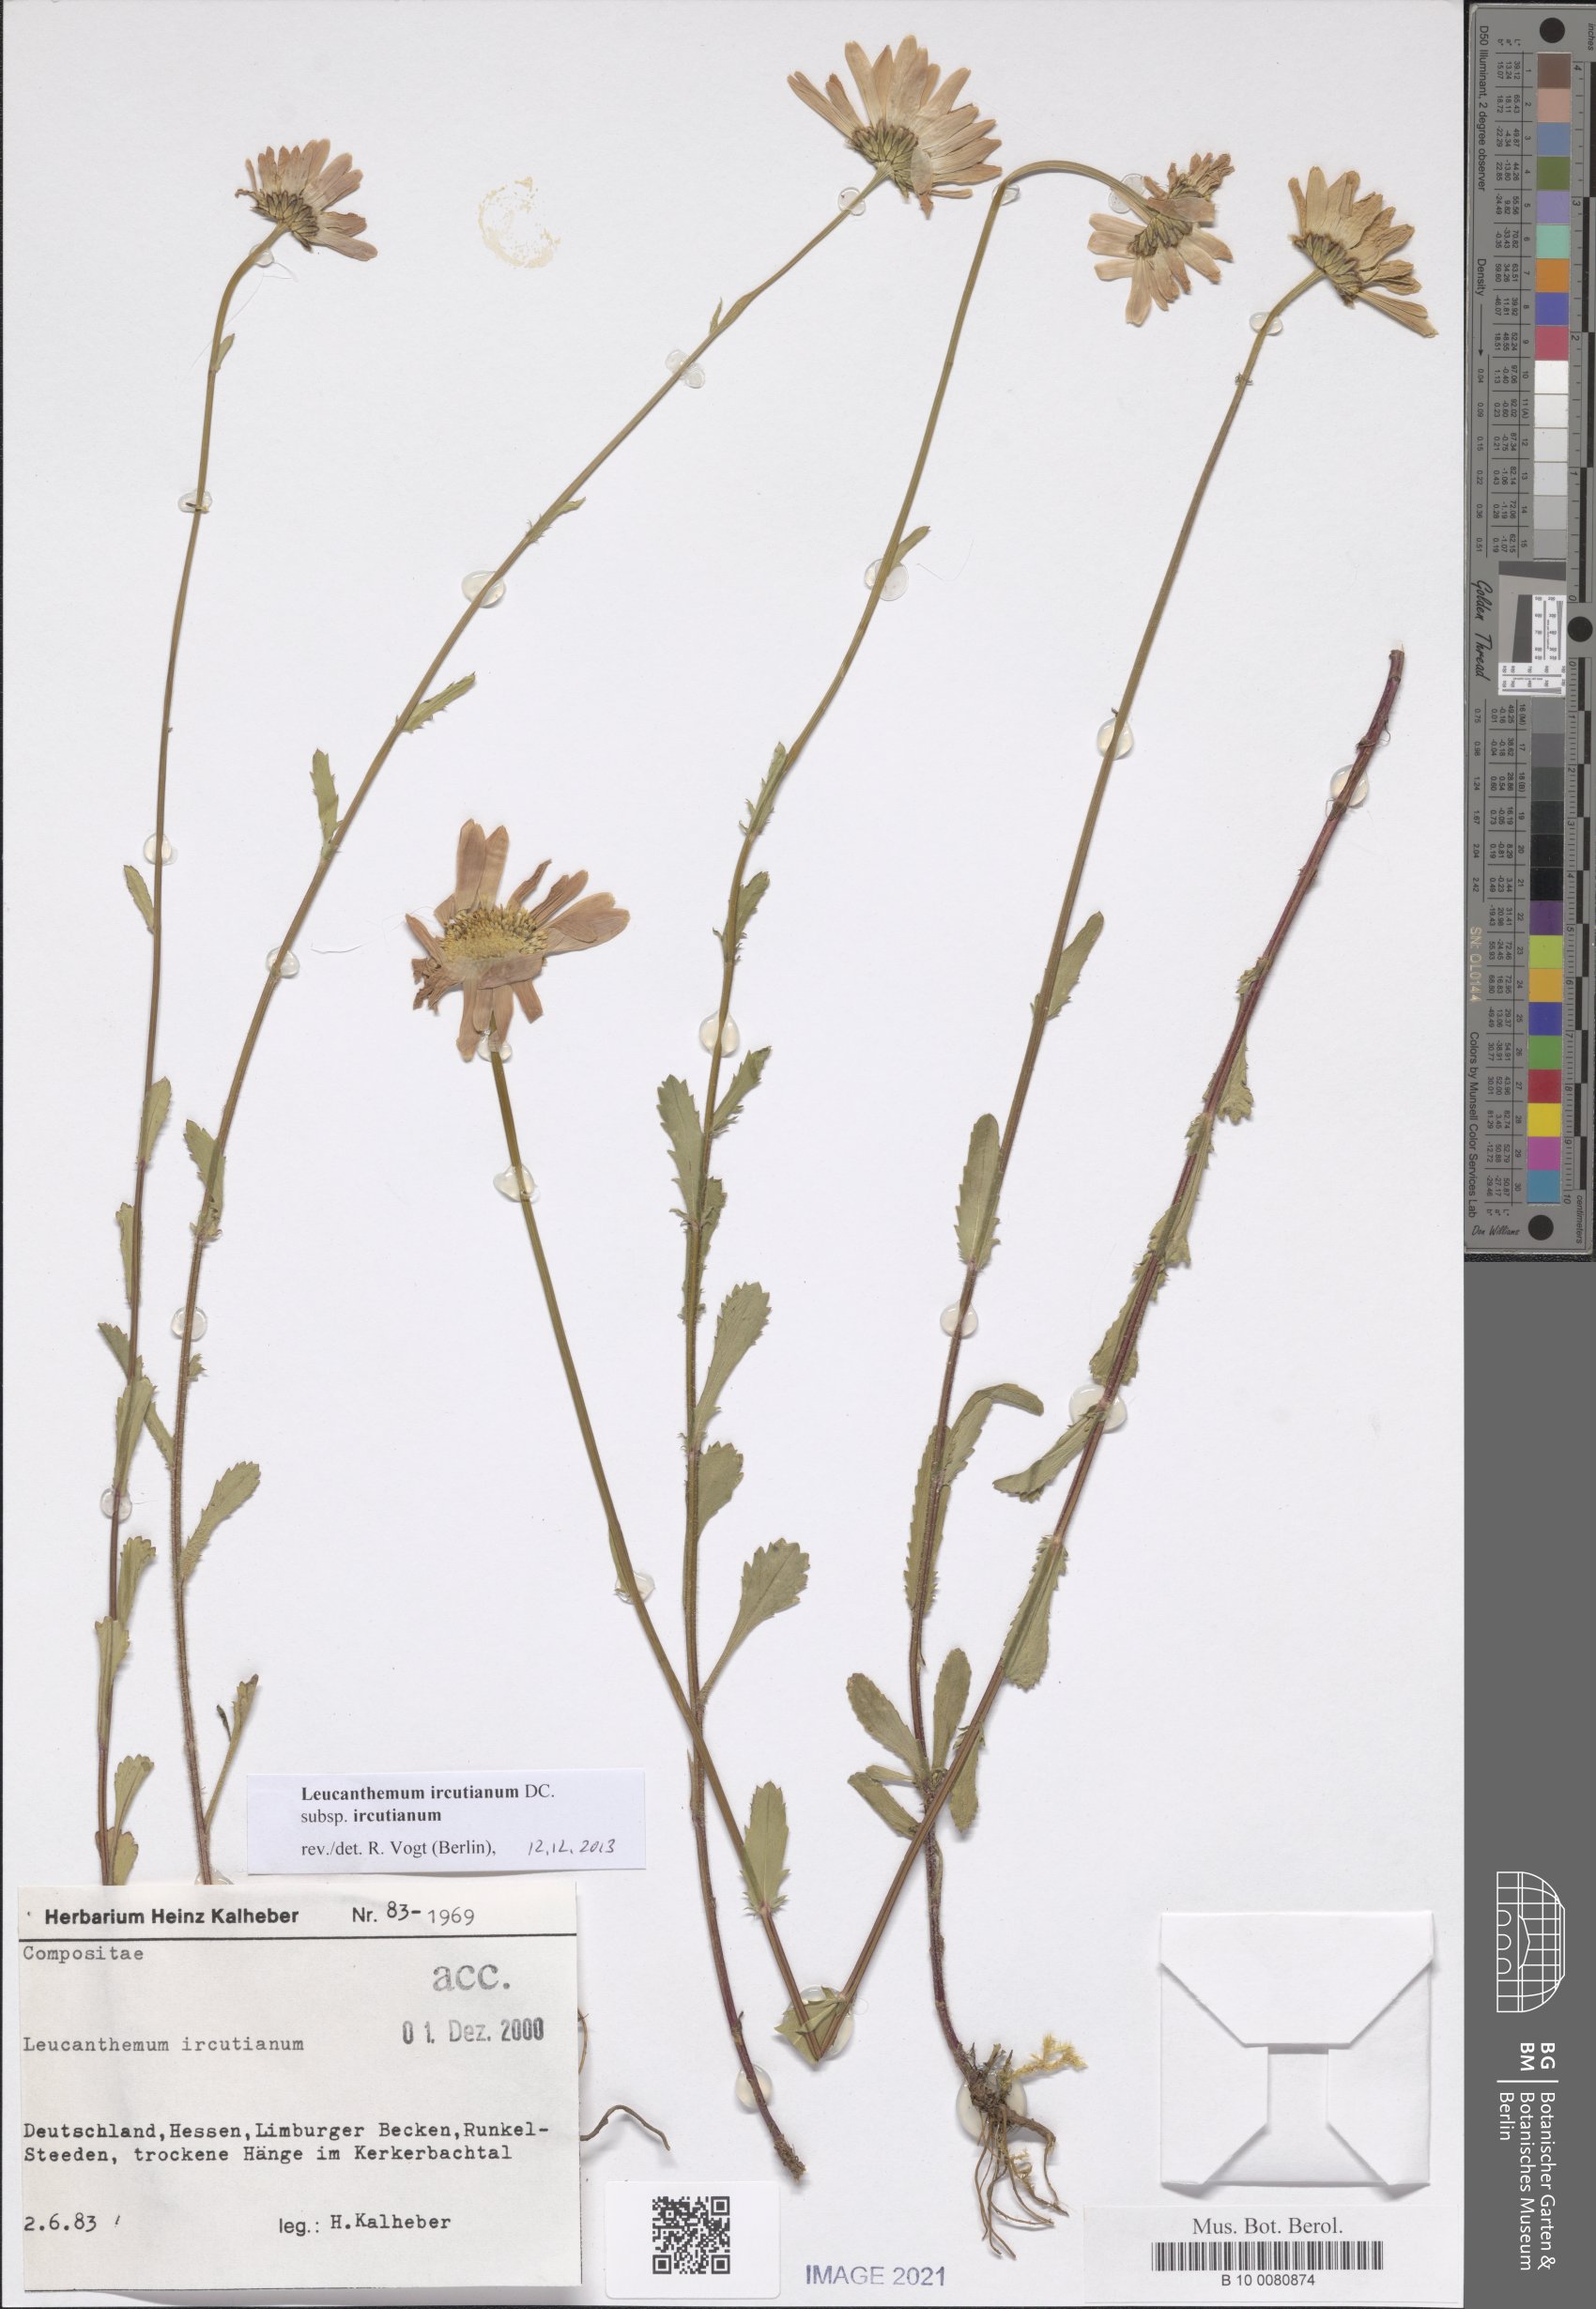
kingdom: Plantae
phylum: Tracheophyta
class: Magnoliopsida
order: Asterales
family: Asteraceae
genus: Leucanthemum
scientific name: Leucanthemum ircutianum
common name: Daisy
